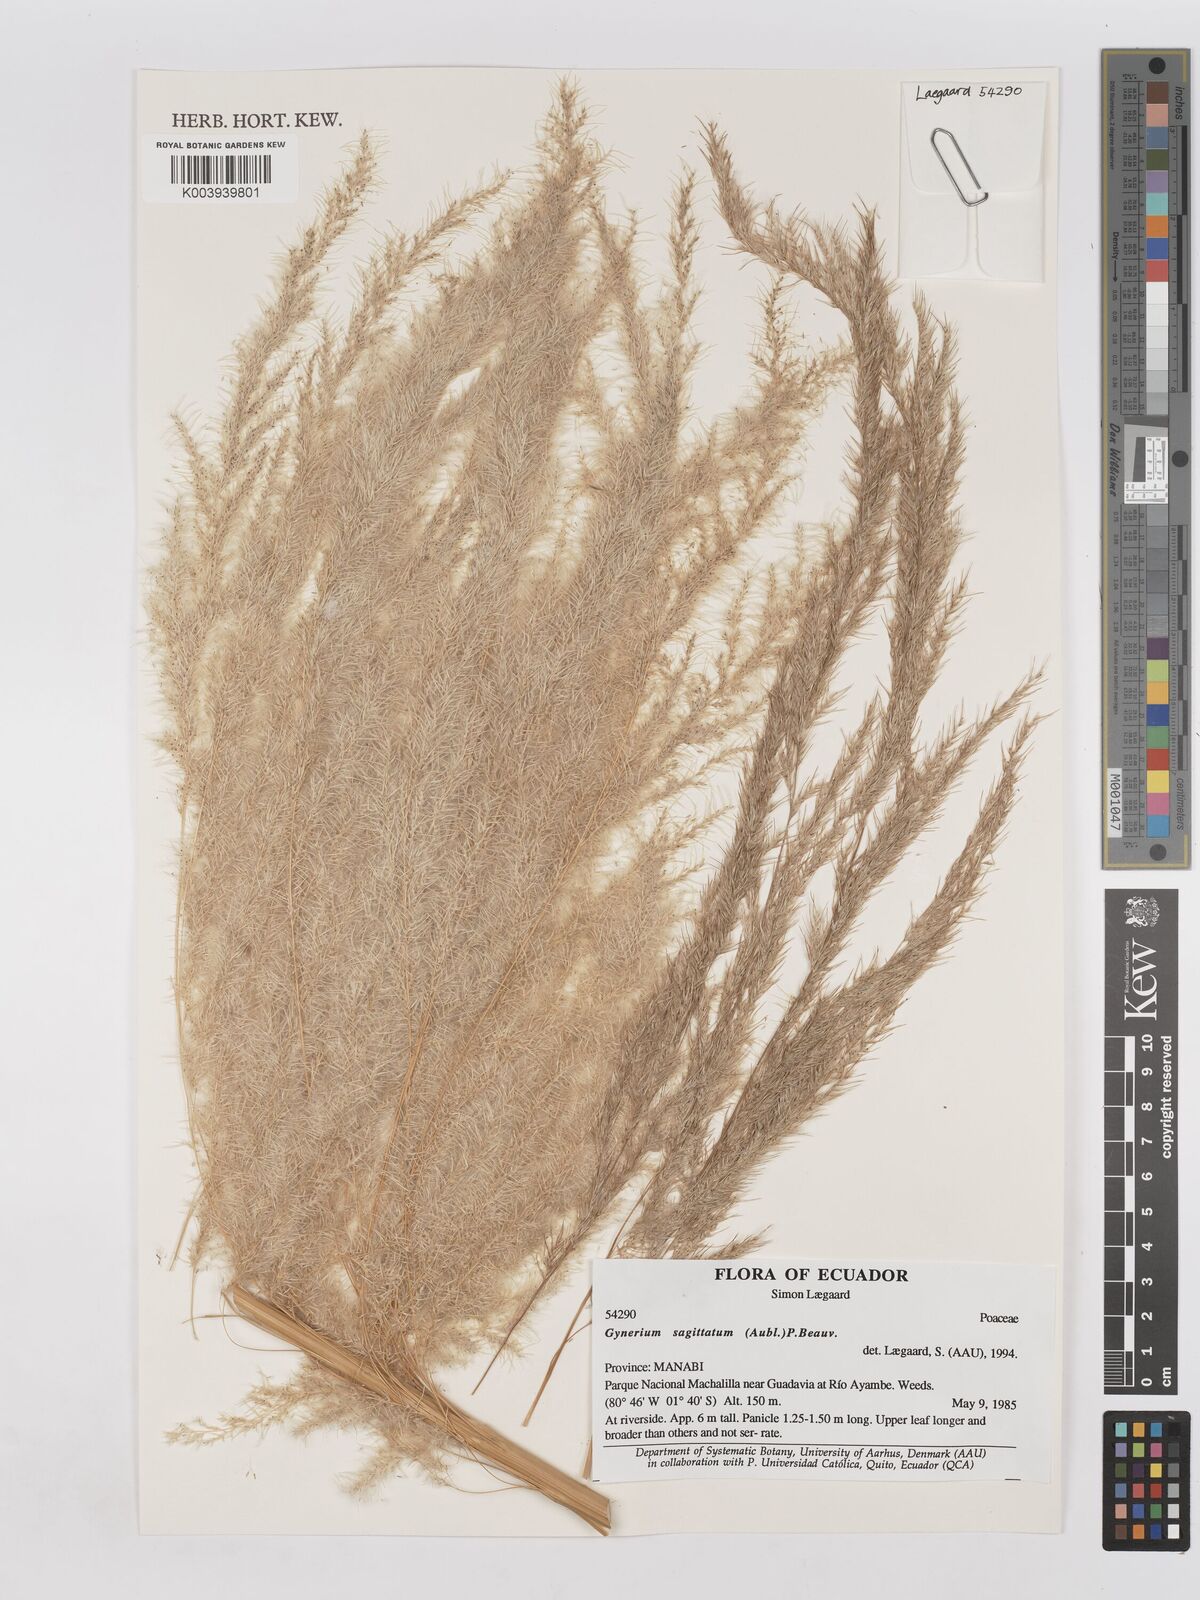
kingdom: Plantae
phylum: Tracheophyta
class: Liliopsida
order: Poales
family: Poaceae
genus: Gynerium
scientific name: Gynerium sagittatum
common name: Wild cane
